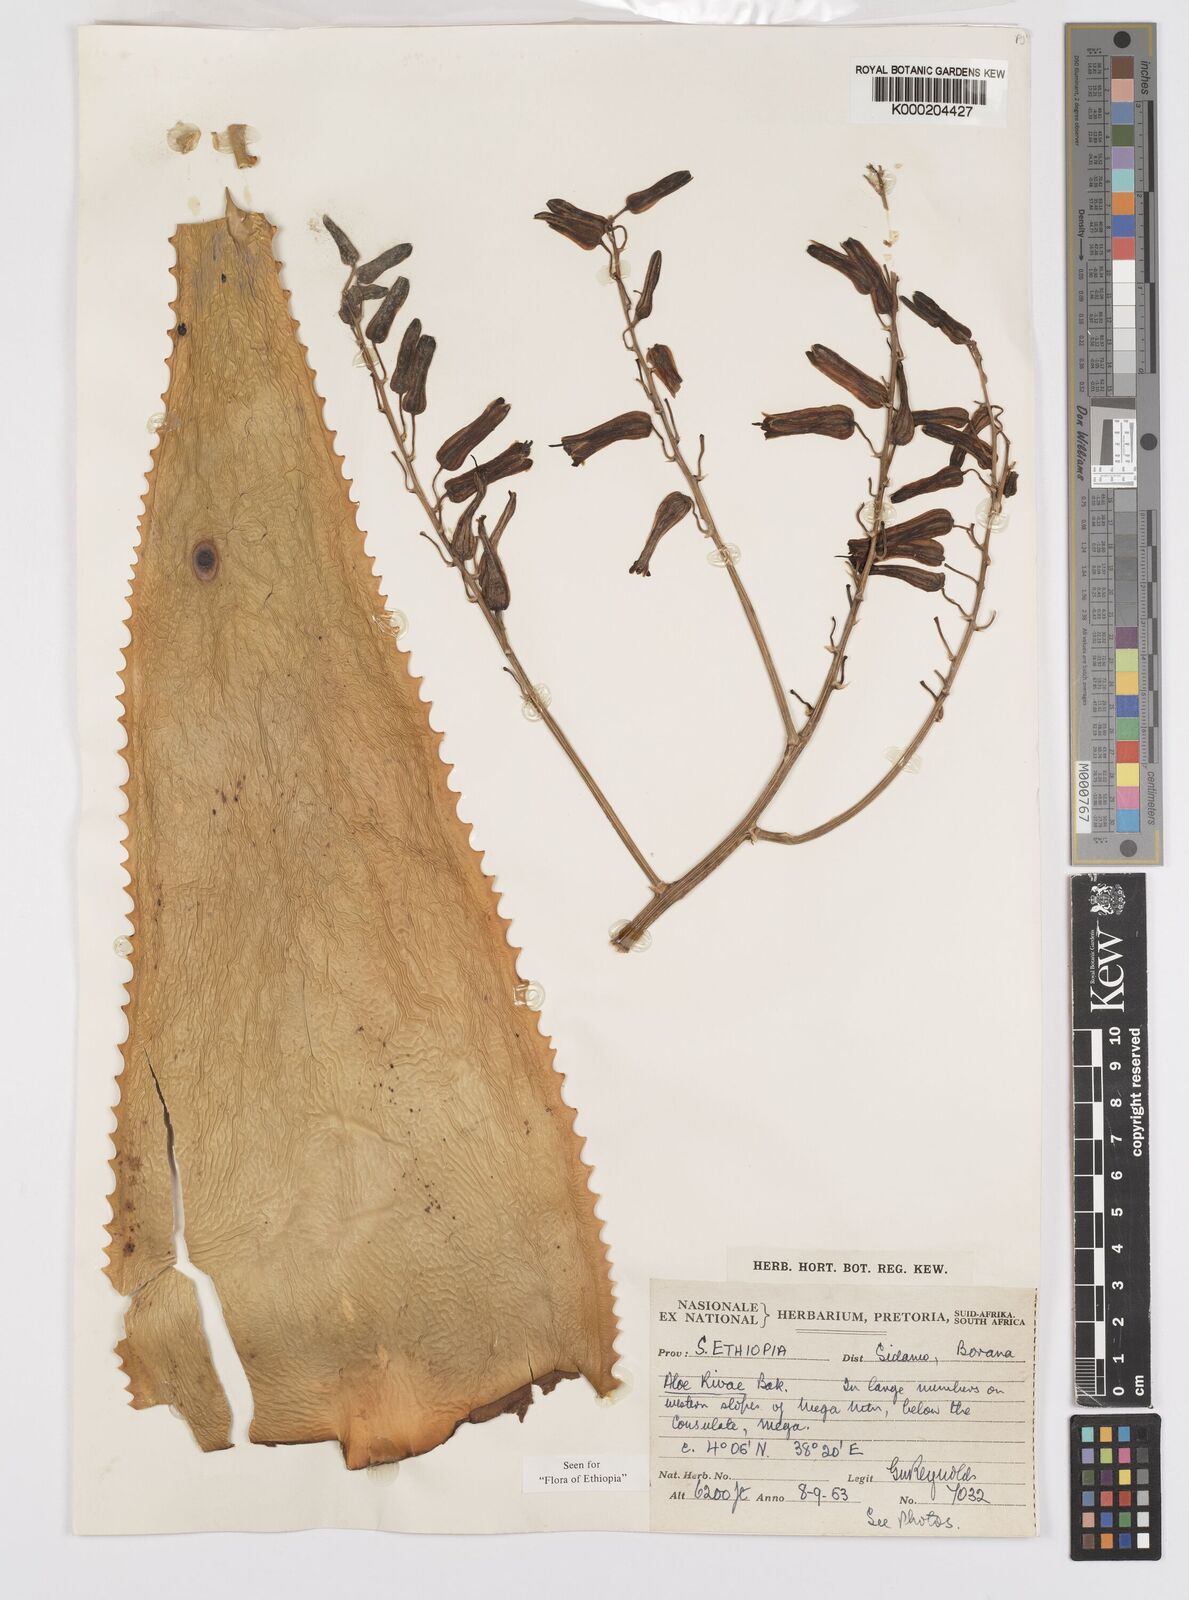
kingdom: Plantae
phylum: Tracheophyta
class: Liliopsida
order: Asparagales
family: Asphodelaceae
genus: Aloe
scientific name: Aloe rivae
